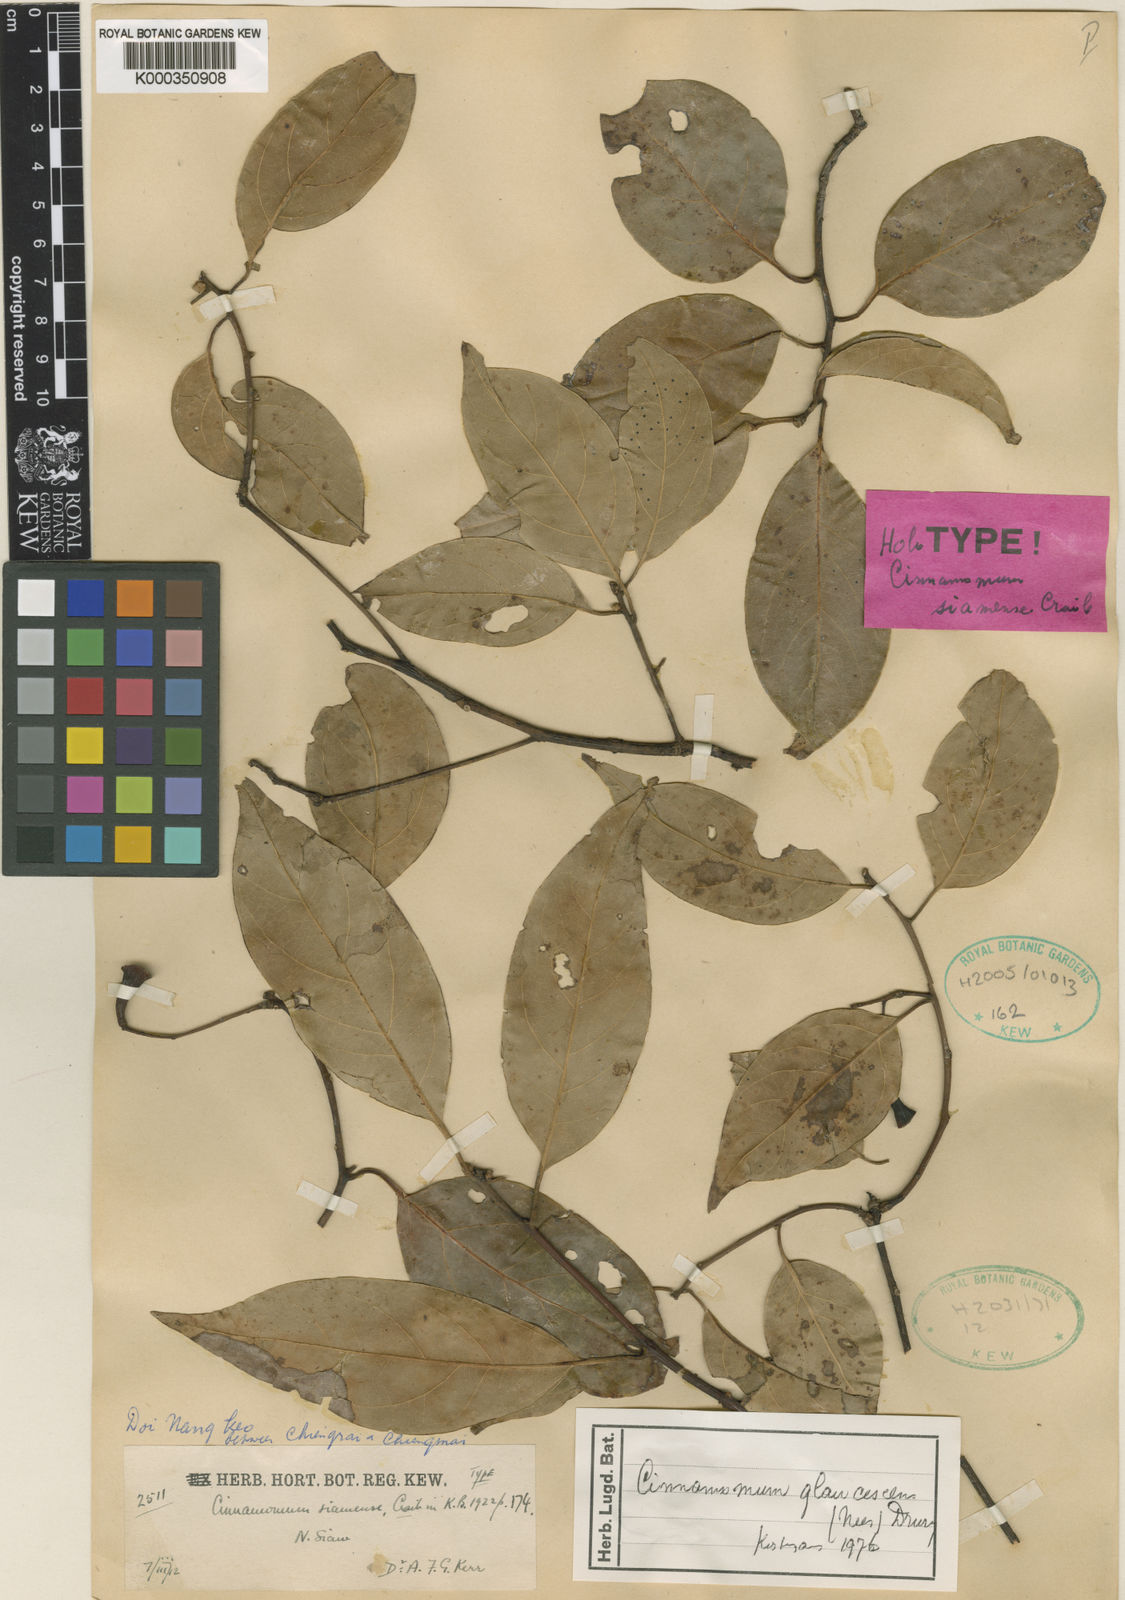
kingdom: Plantae
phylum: Tracheophyta
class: Magnoliopsida
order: Laurales
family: Lauraceae
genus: Cinnamomum
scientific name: Cinnamomum glaucescens
